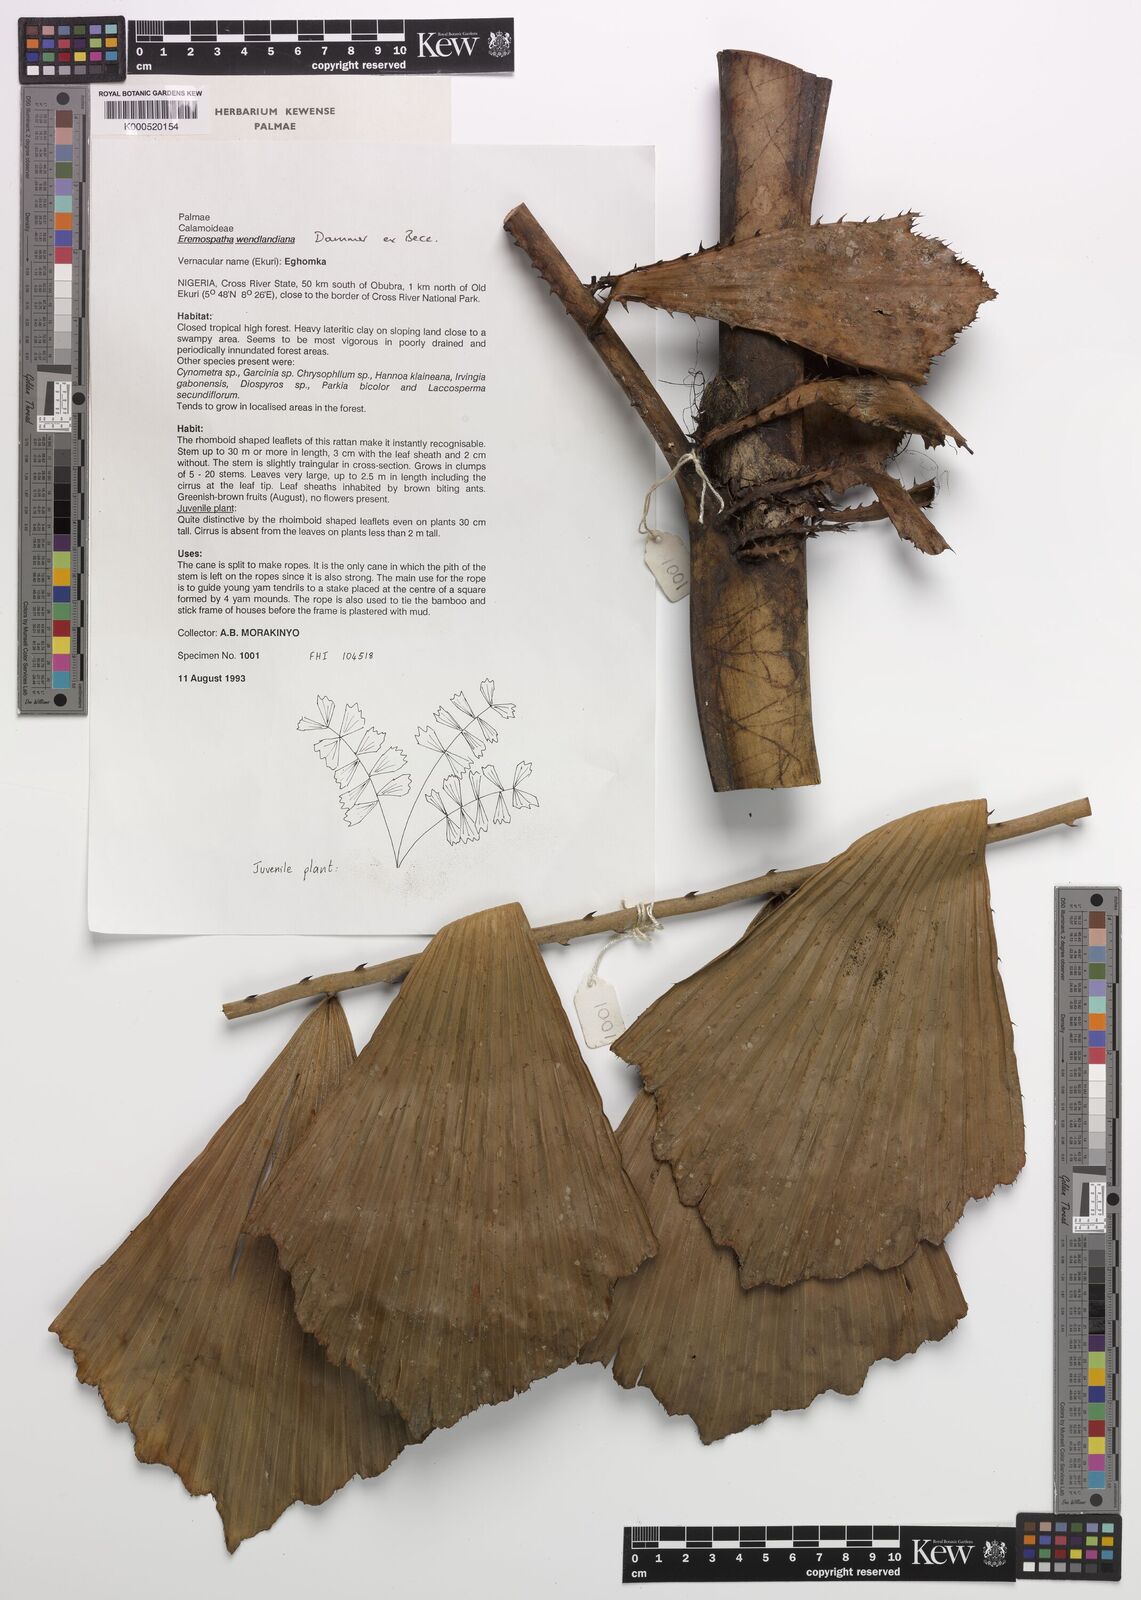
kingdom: Plantae
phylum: Tracheophyta
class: Liliopsida
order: Arecales
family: Arecaceae
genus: Eremospatha
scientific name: Eremospatha wendlandiana
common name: Rattan
